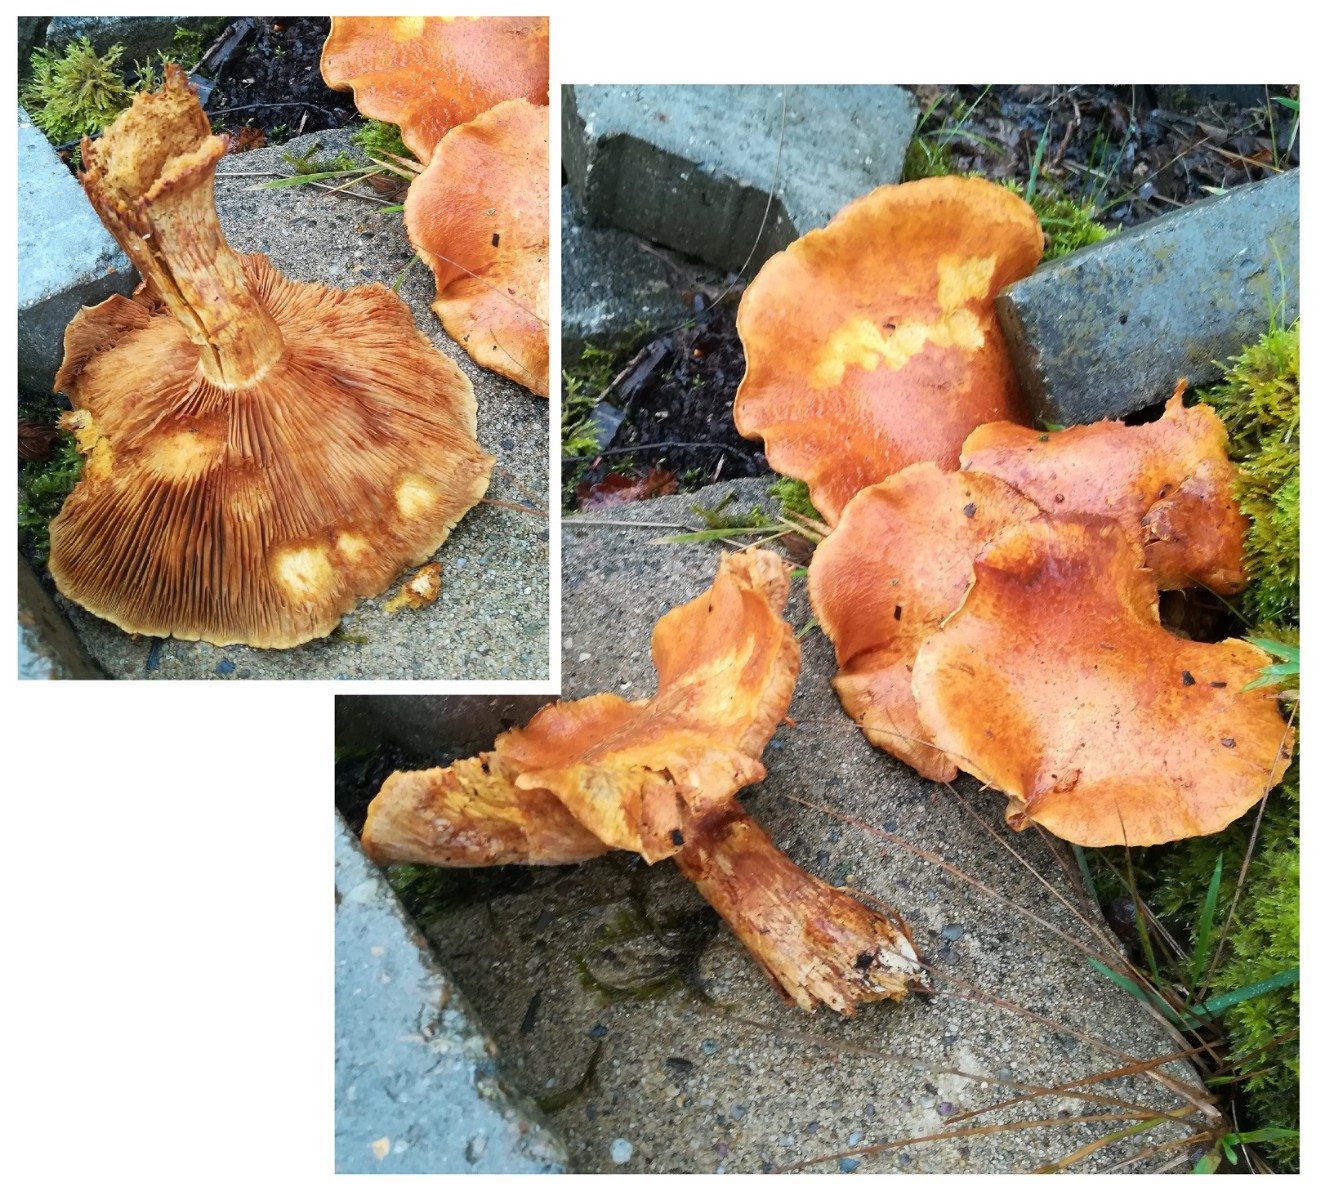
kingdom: Fungi
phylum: Basidiomycota
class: Agaricomycetes
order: Agaricales
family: Hymenogastraceae
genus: Gymnopilus
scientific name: Gymnopilus spectabilis
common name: fibret flammehat
